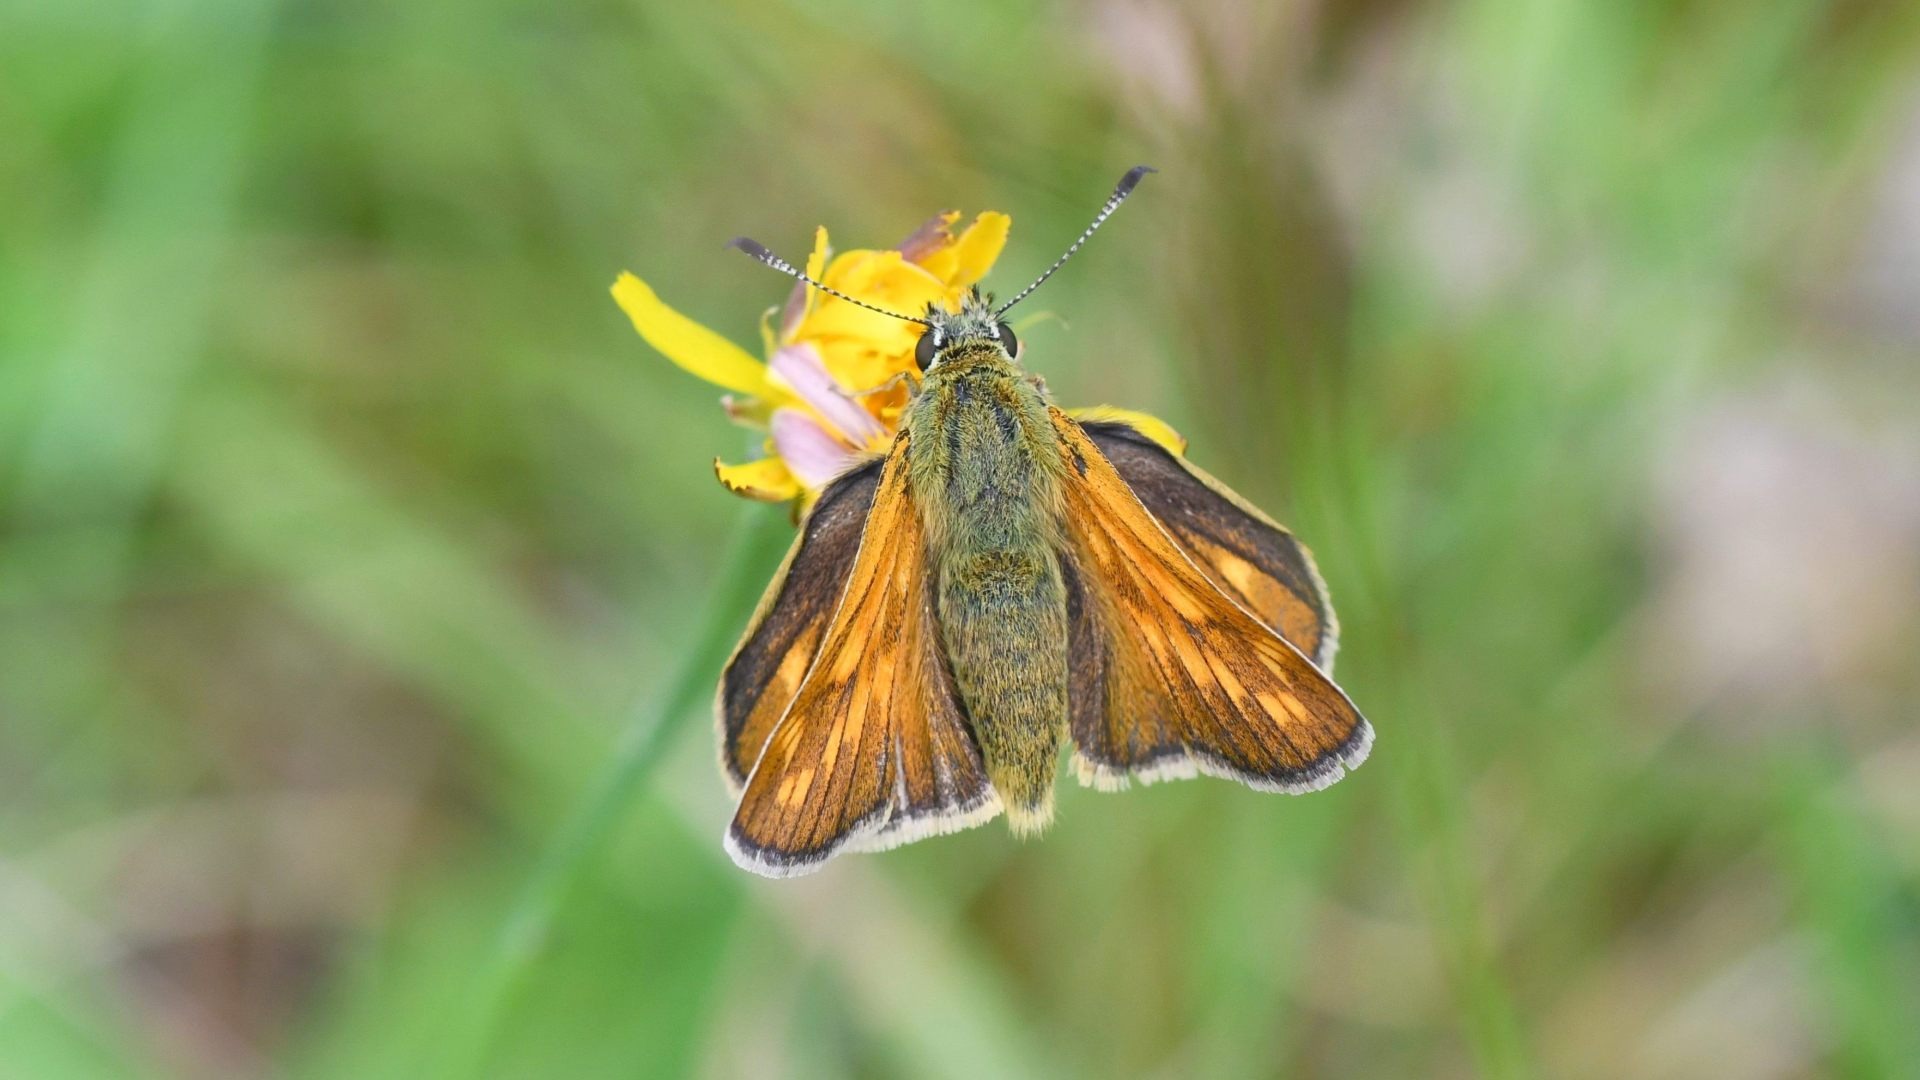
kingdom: Animalia
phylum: Arthropoda
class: Insecta
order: Lepidoptera
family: Hesperiidae
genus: Ochlodes
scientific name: Ochlodes venata
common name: Stor bredpande
